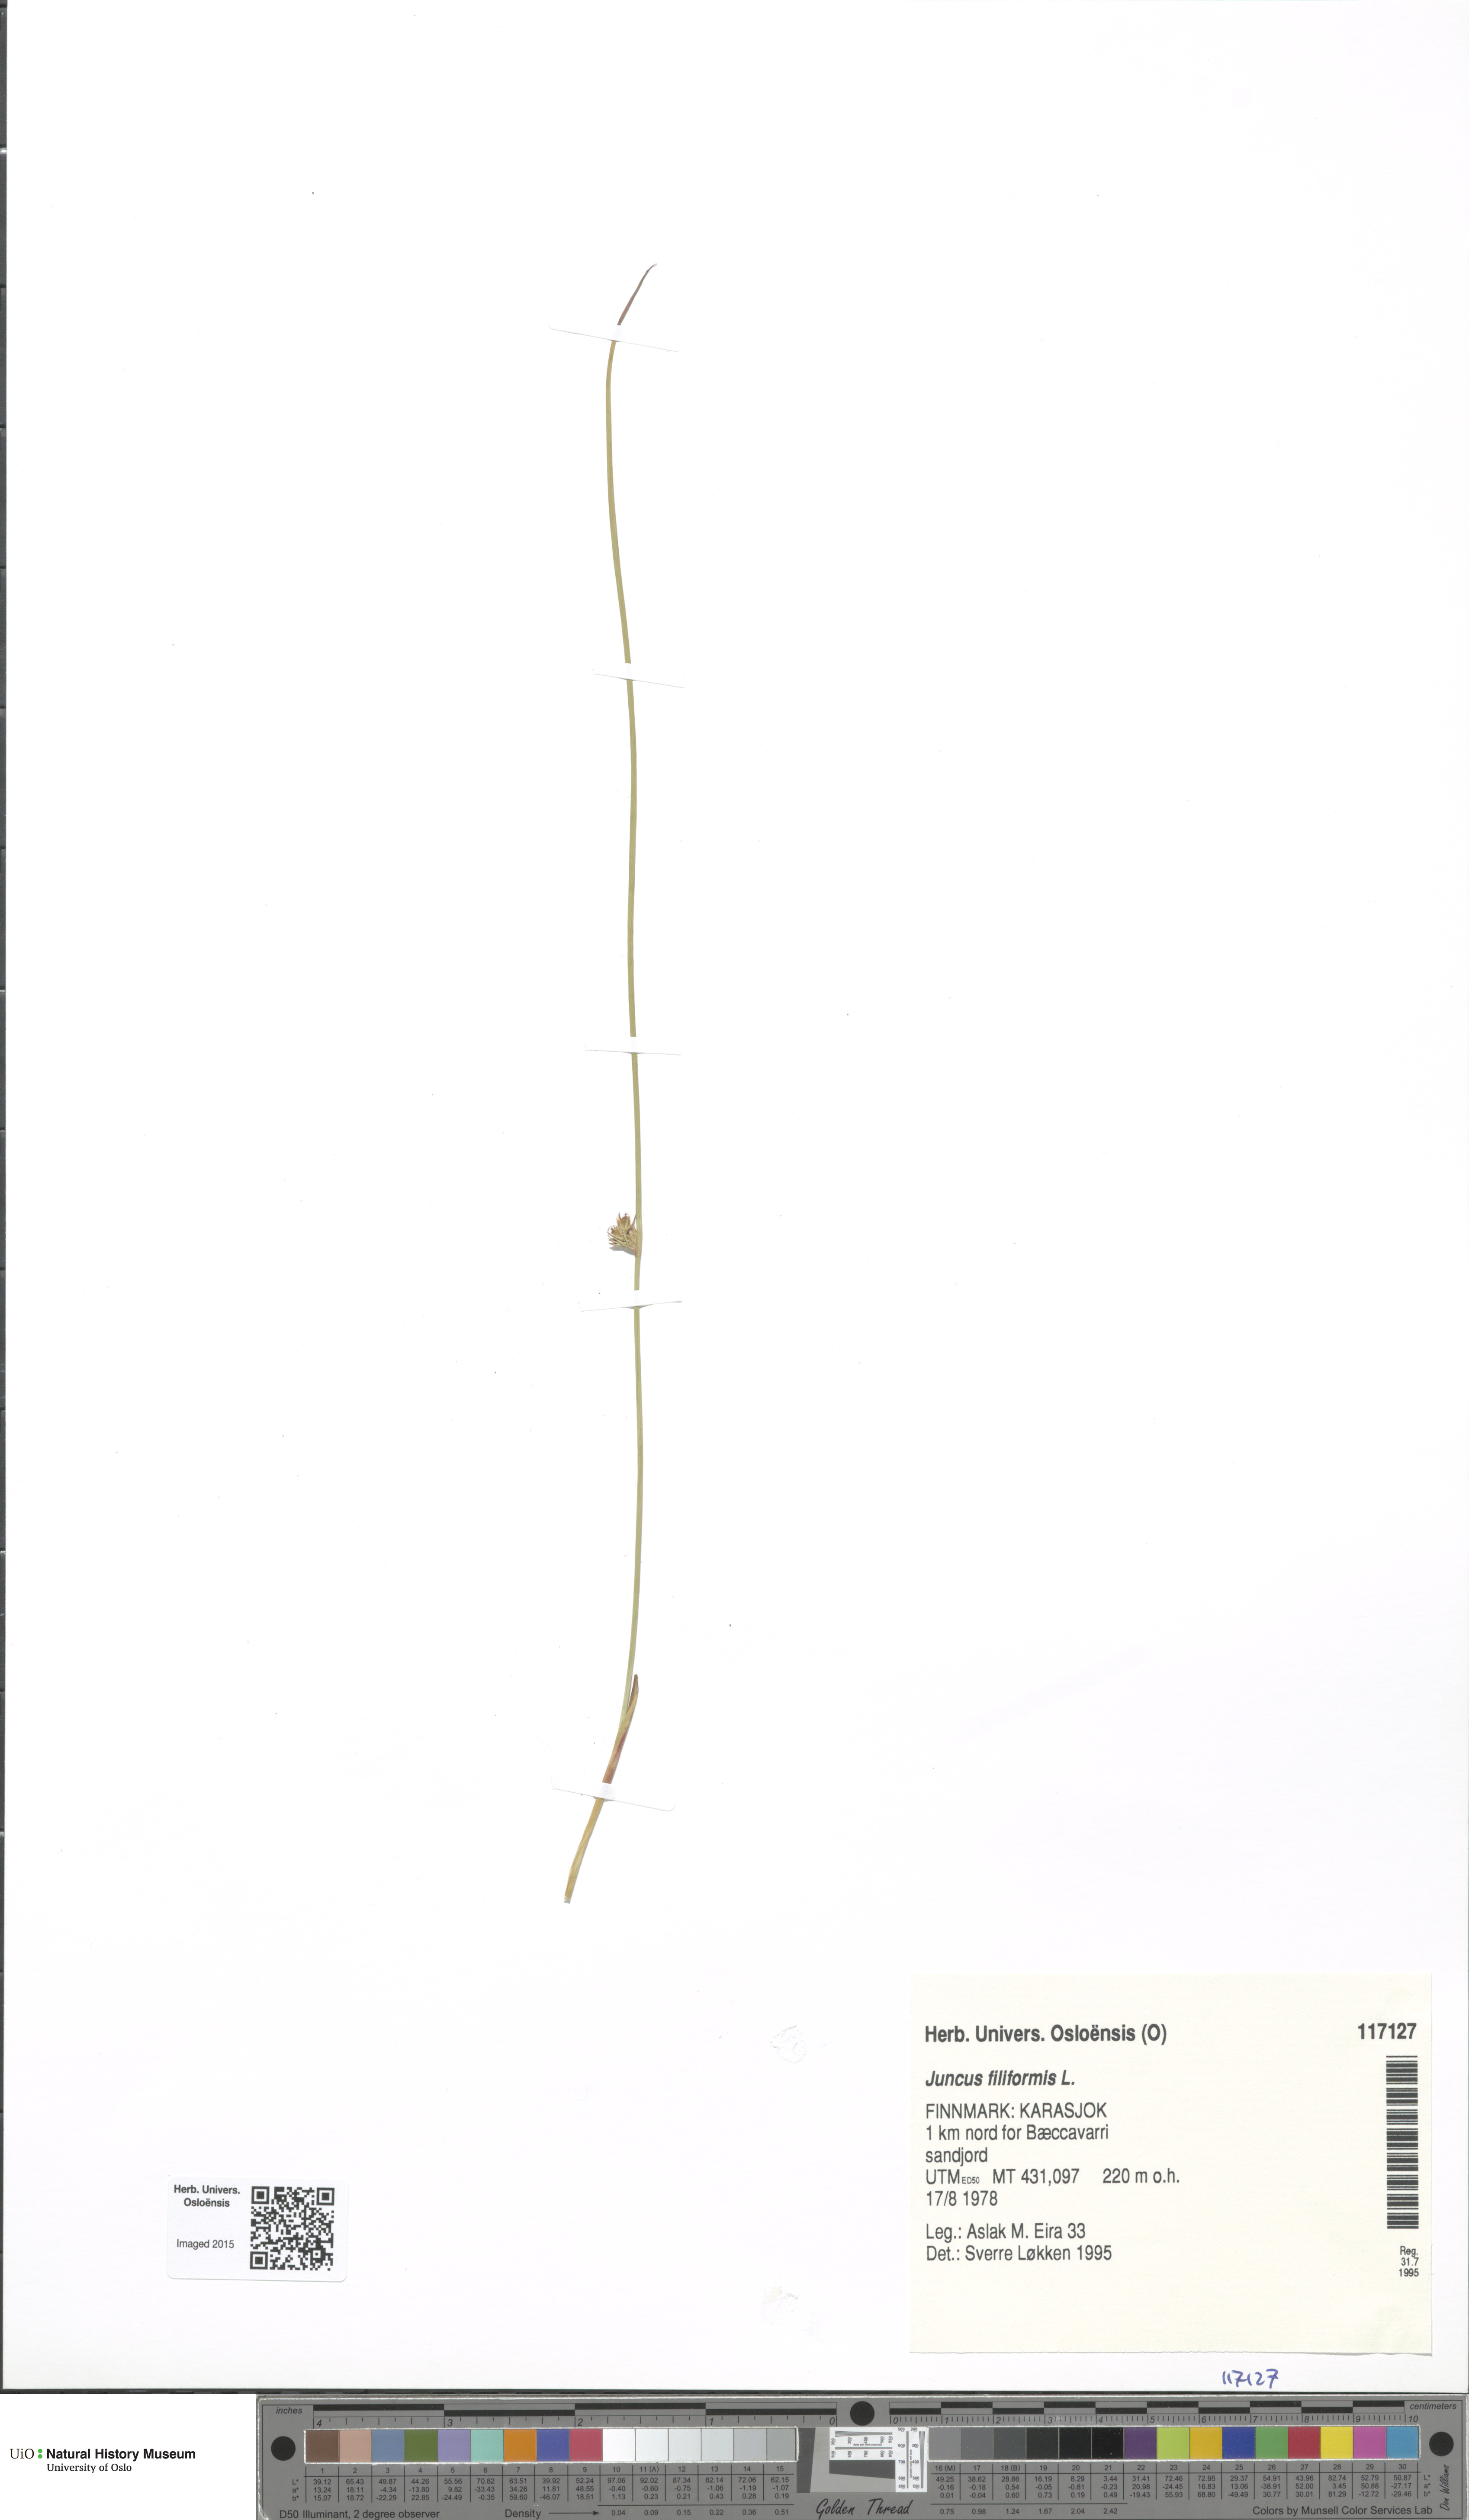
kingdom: Plantae
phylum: Tracheophyta
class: Liliopsida
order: Poales
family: Juncaceae
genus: Juncus
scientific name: Juncus filiformis
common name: Thread rush
